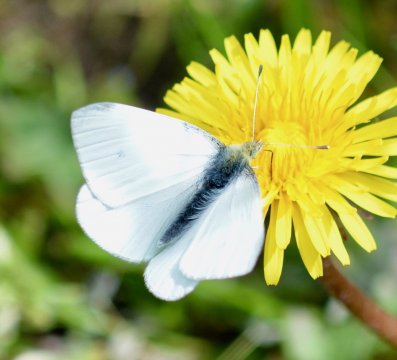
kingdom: Animalia
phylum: Arthropoda
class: Insecta
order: Lepidoptera
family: Pieridae
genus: Pieris
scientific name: Pieris marginalis
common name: Margined White
